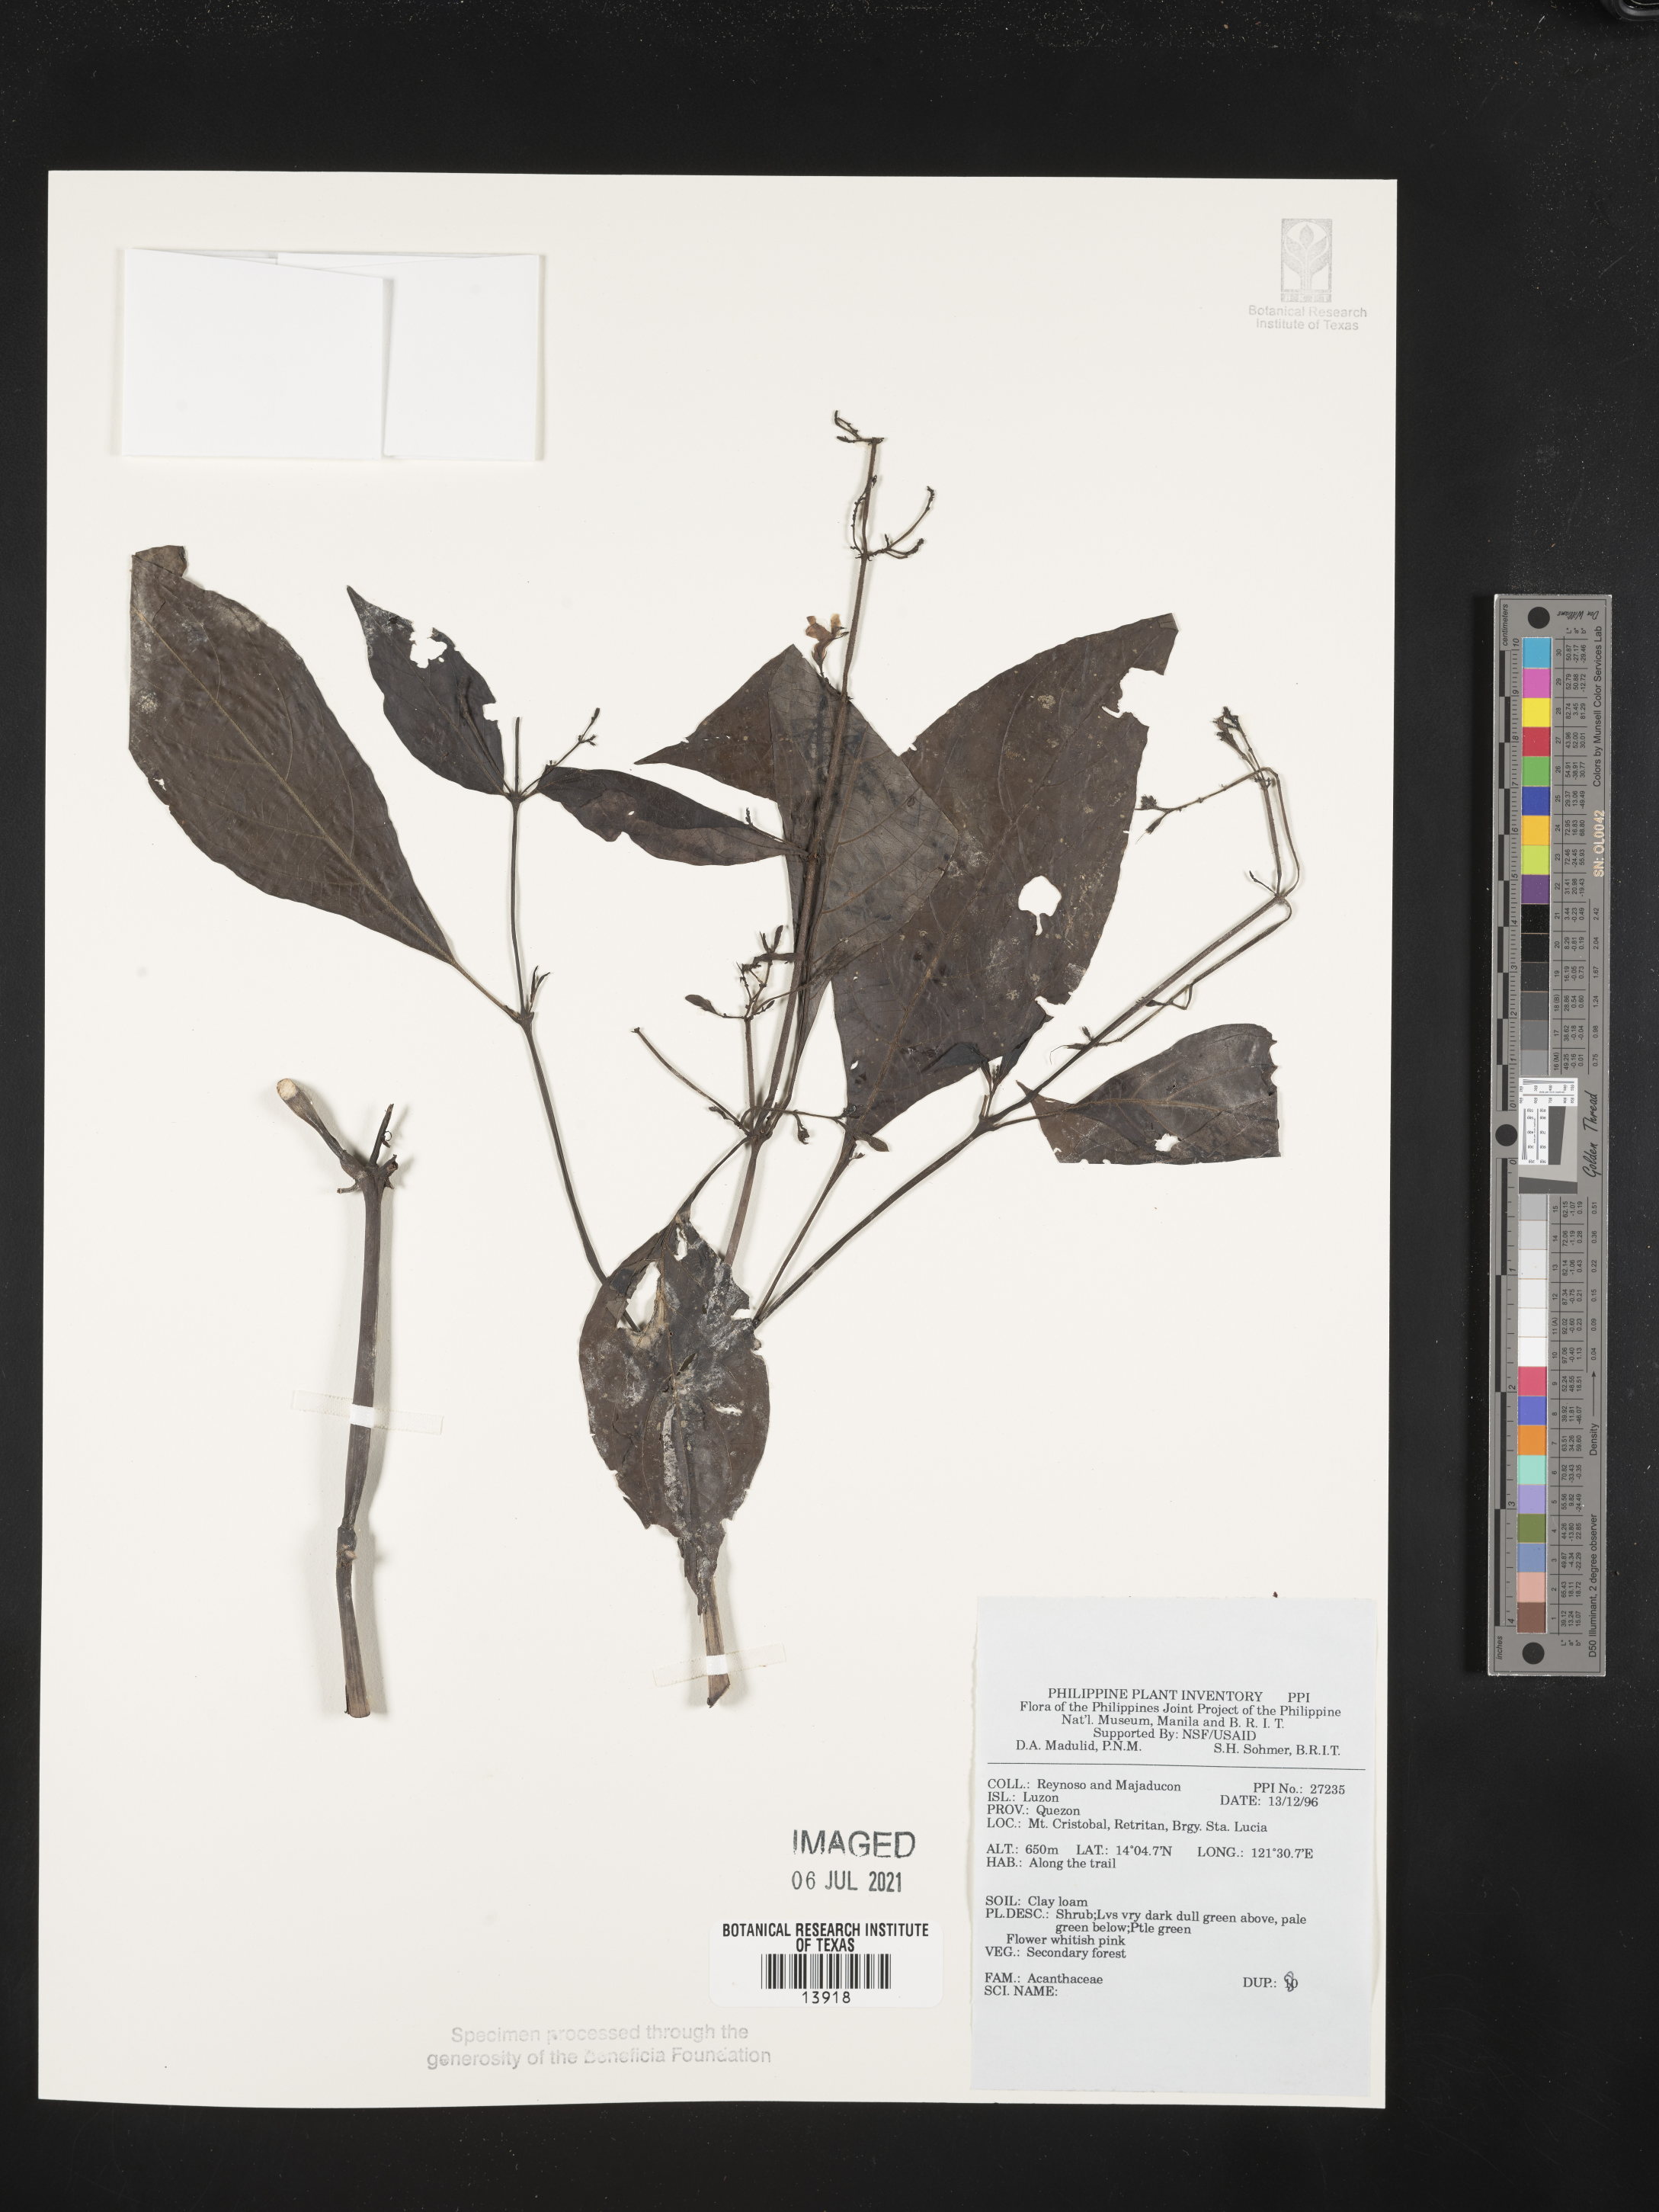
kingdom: Plantae
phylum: Tracheophyta
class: Magnoliopsida
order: Lamiales
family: Acanthaceae
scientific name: Acanthaceae
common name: Acanthaceae
